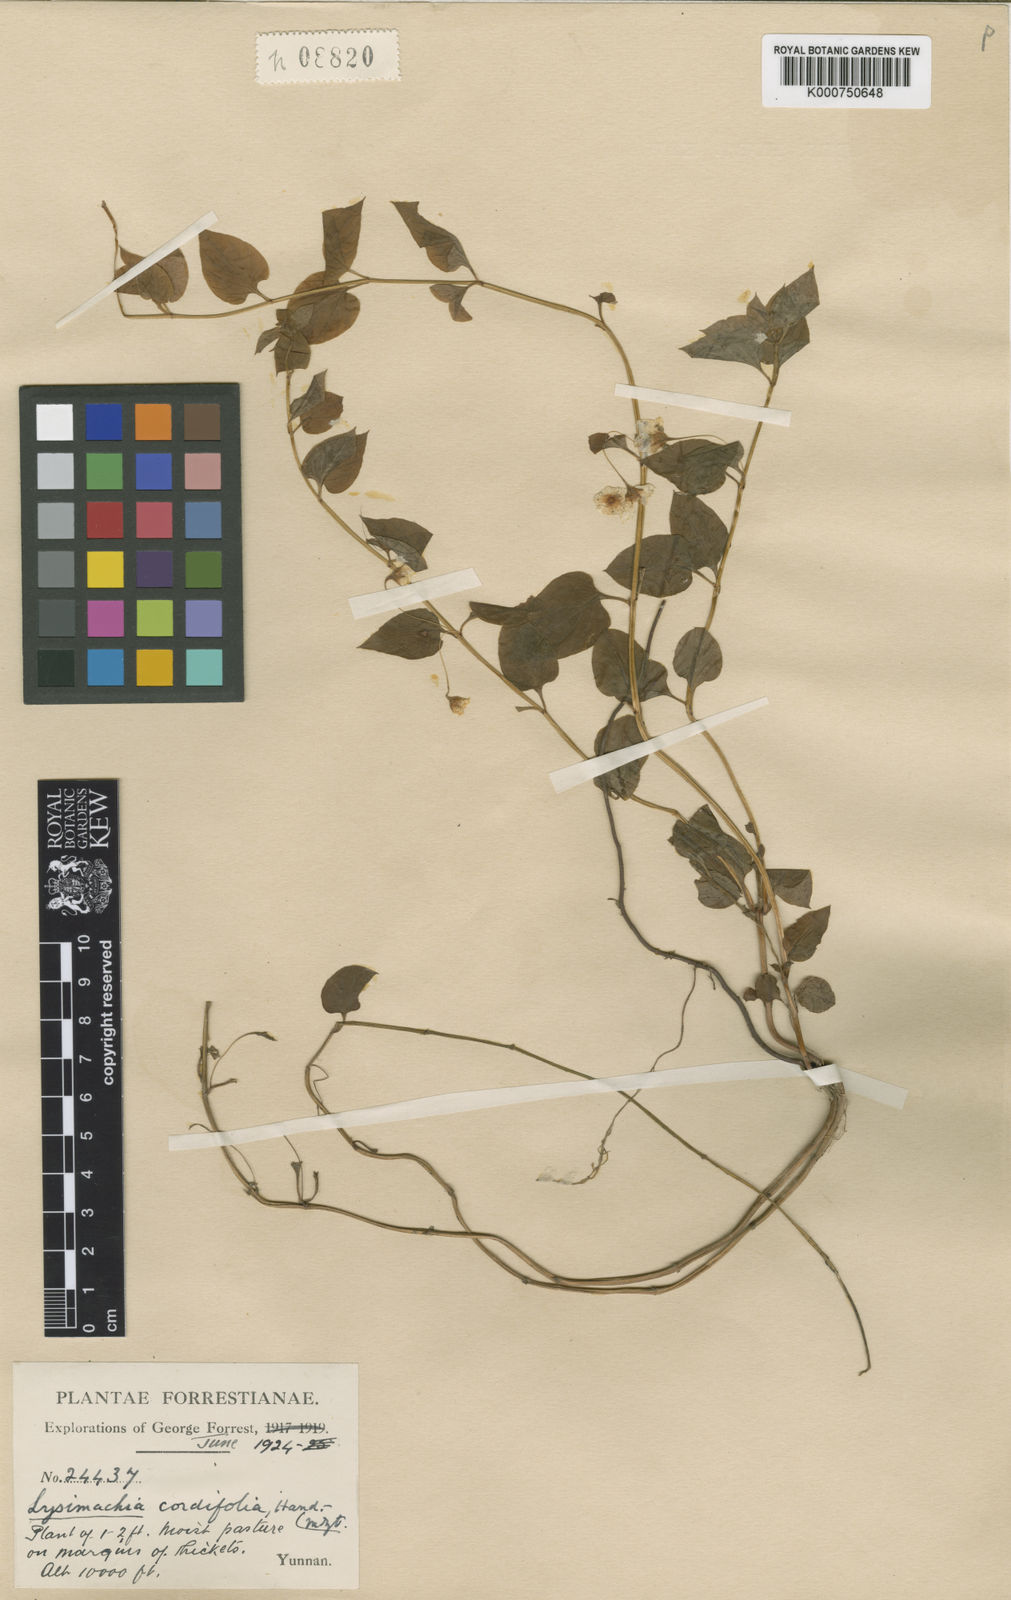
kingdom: Plantae
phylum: Tracheophyta
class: Magnoliopsida
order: Ericales
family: Primulaceae
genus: Lysimachia
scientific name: Lysimachia cordifolia
